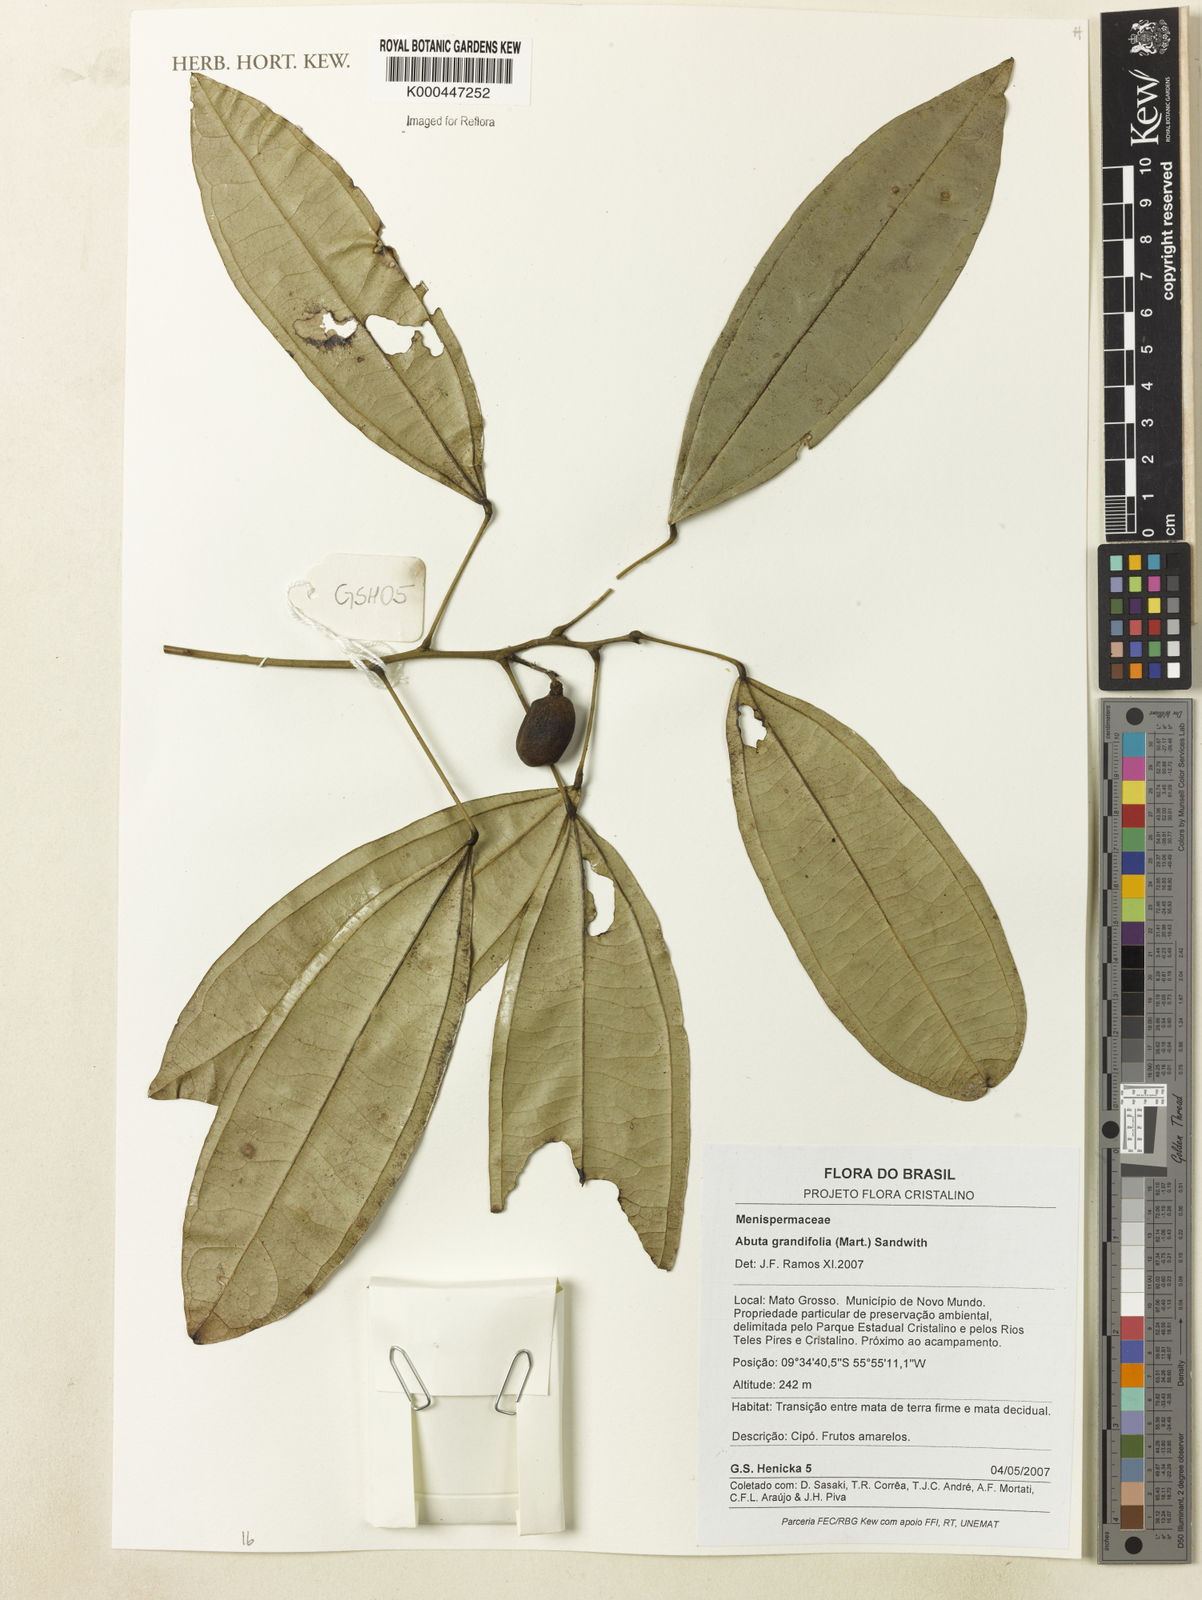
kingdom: Plantae
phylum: Tracheophyta
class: Magnoliopsida
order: Ranunculales
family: Menispermaceae
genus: Abuta
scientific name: Abuta grandifolia
